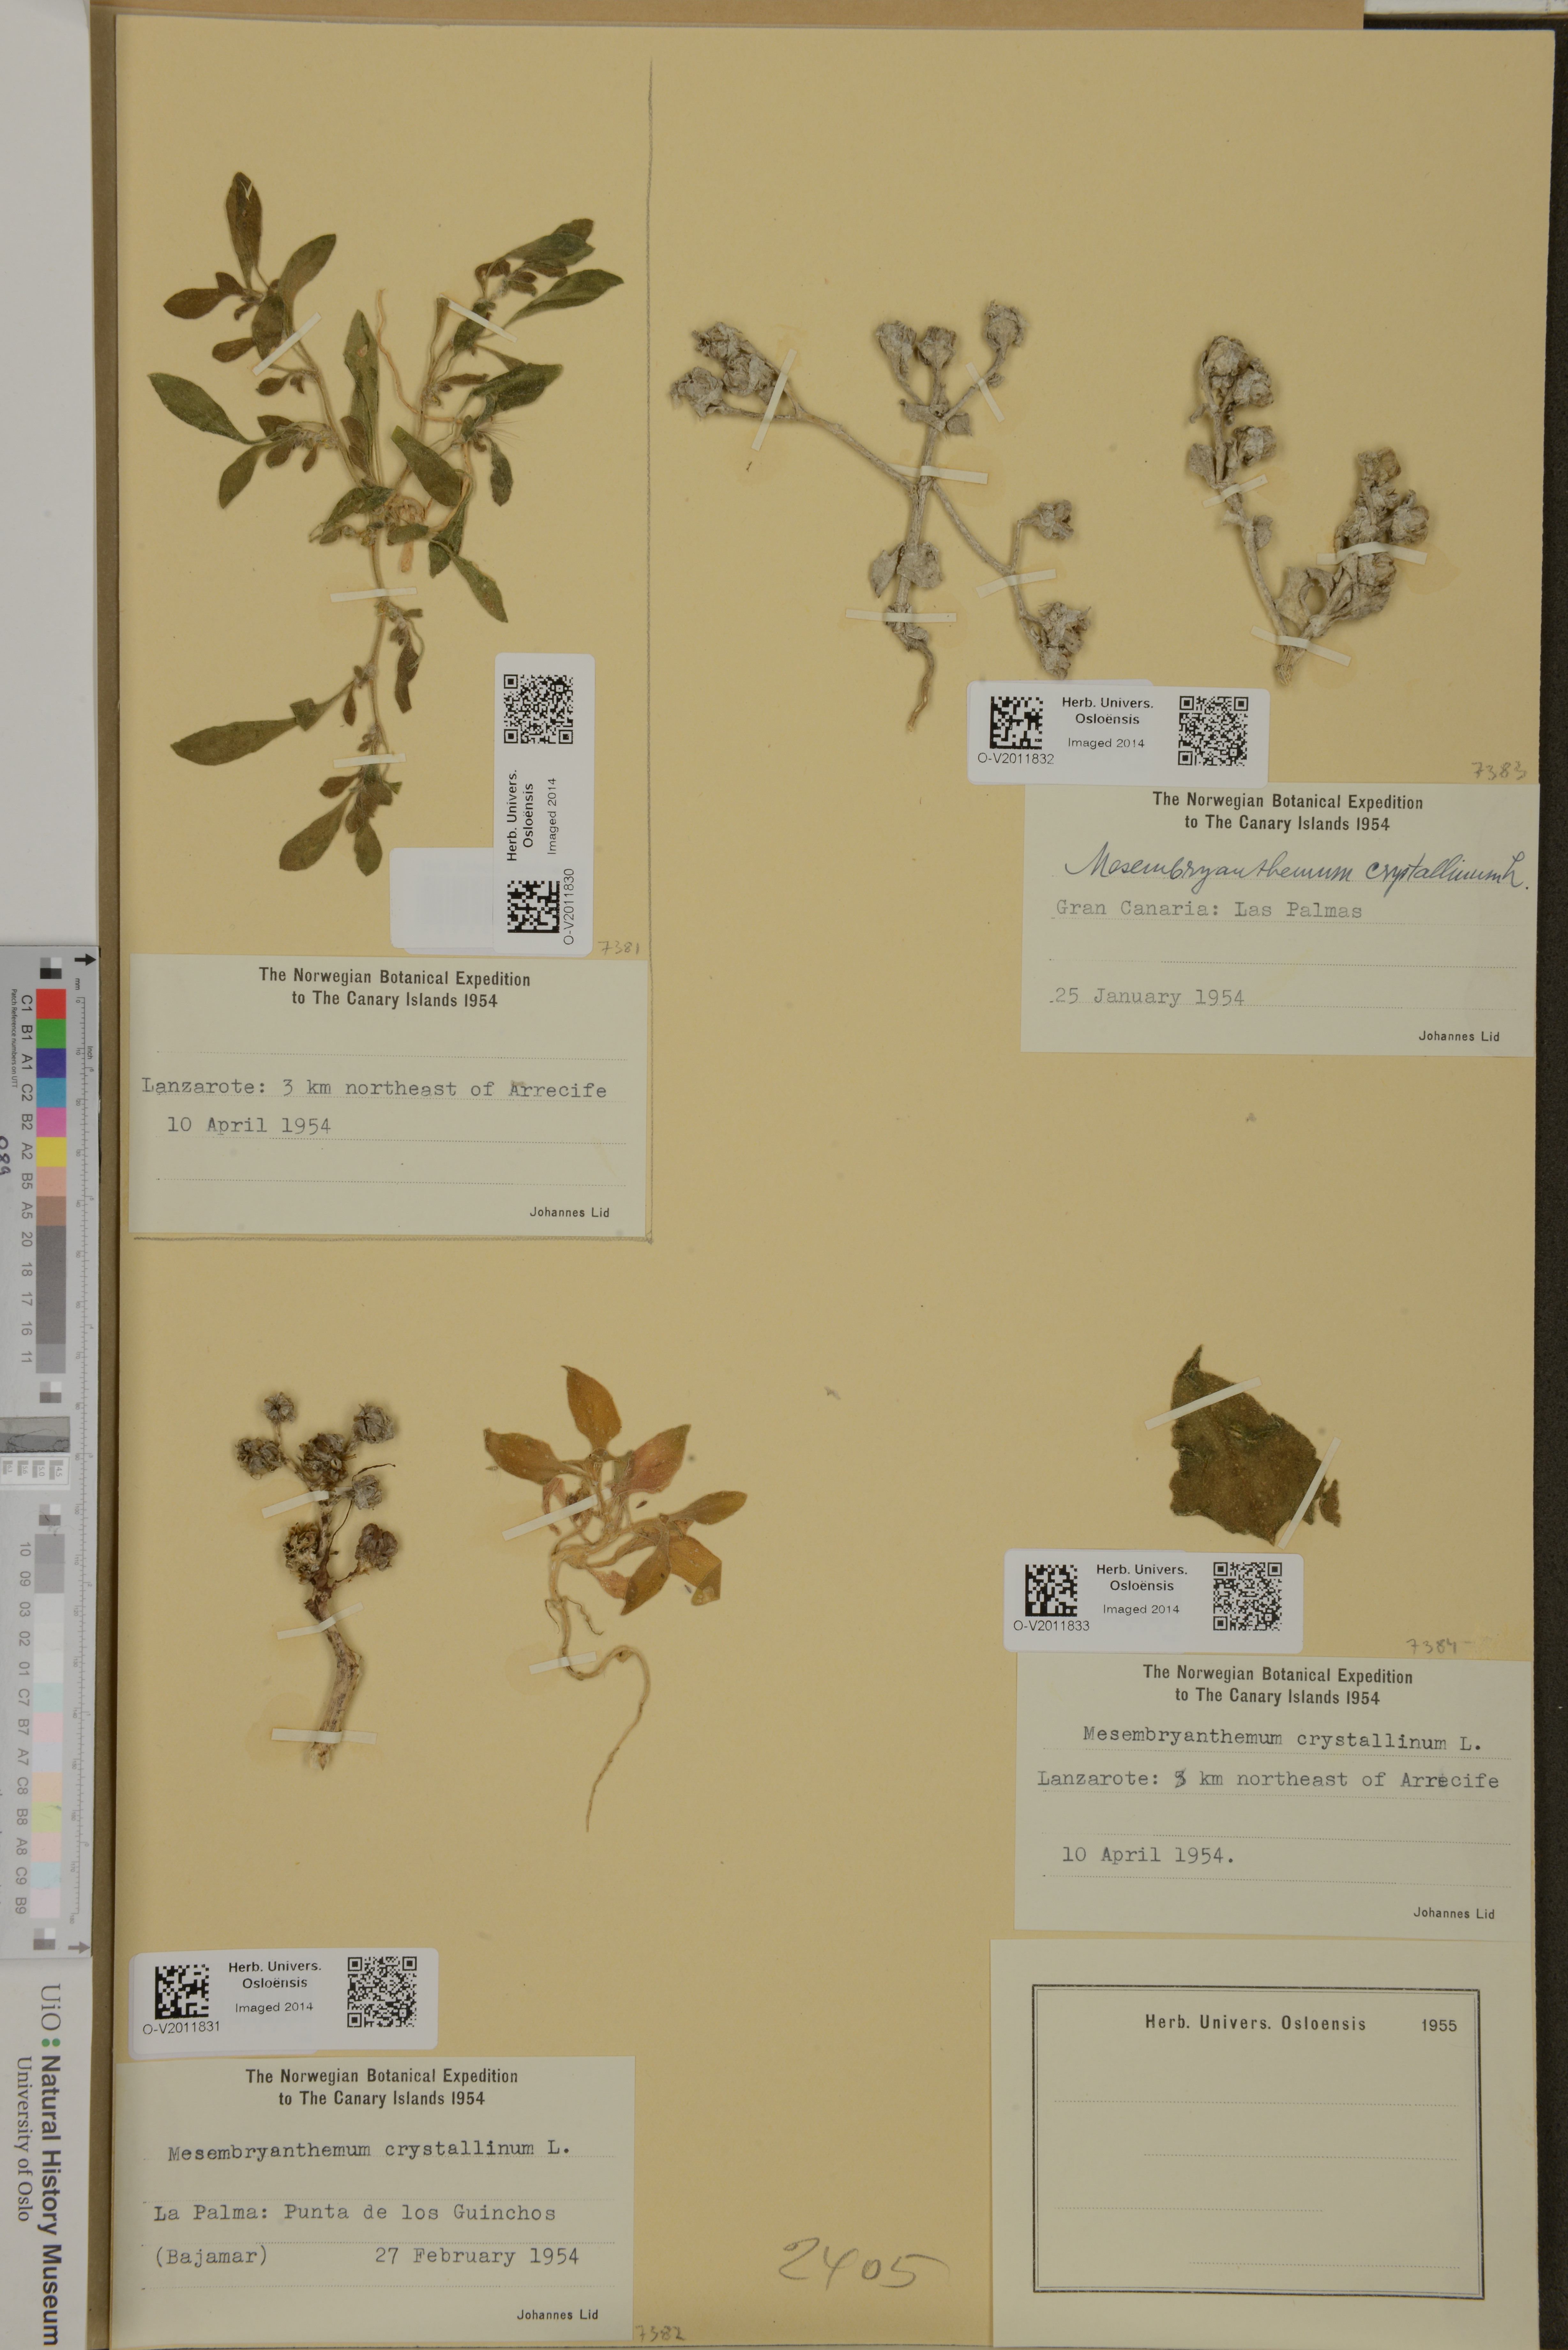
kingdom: Plantae
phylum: Tracheophyta
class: Magnoliopsida
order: Caryophyllales
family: Aizoaceae
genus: Mesembryanthemum
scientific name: Mesembryanthemum crystallinum
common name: Common iceplant
